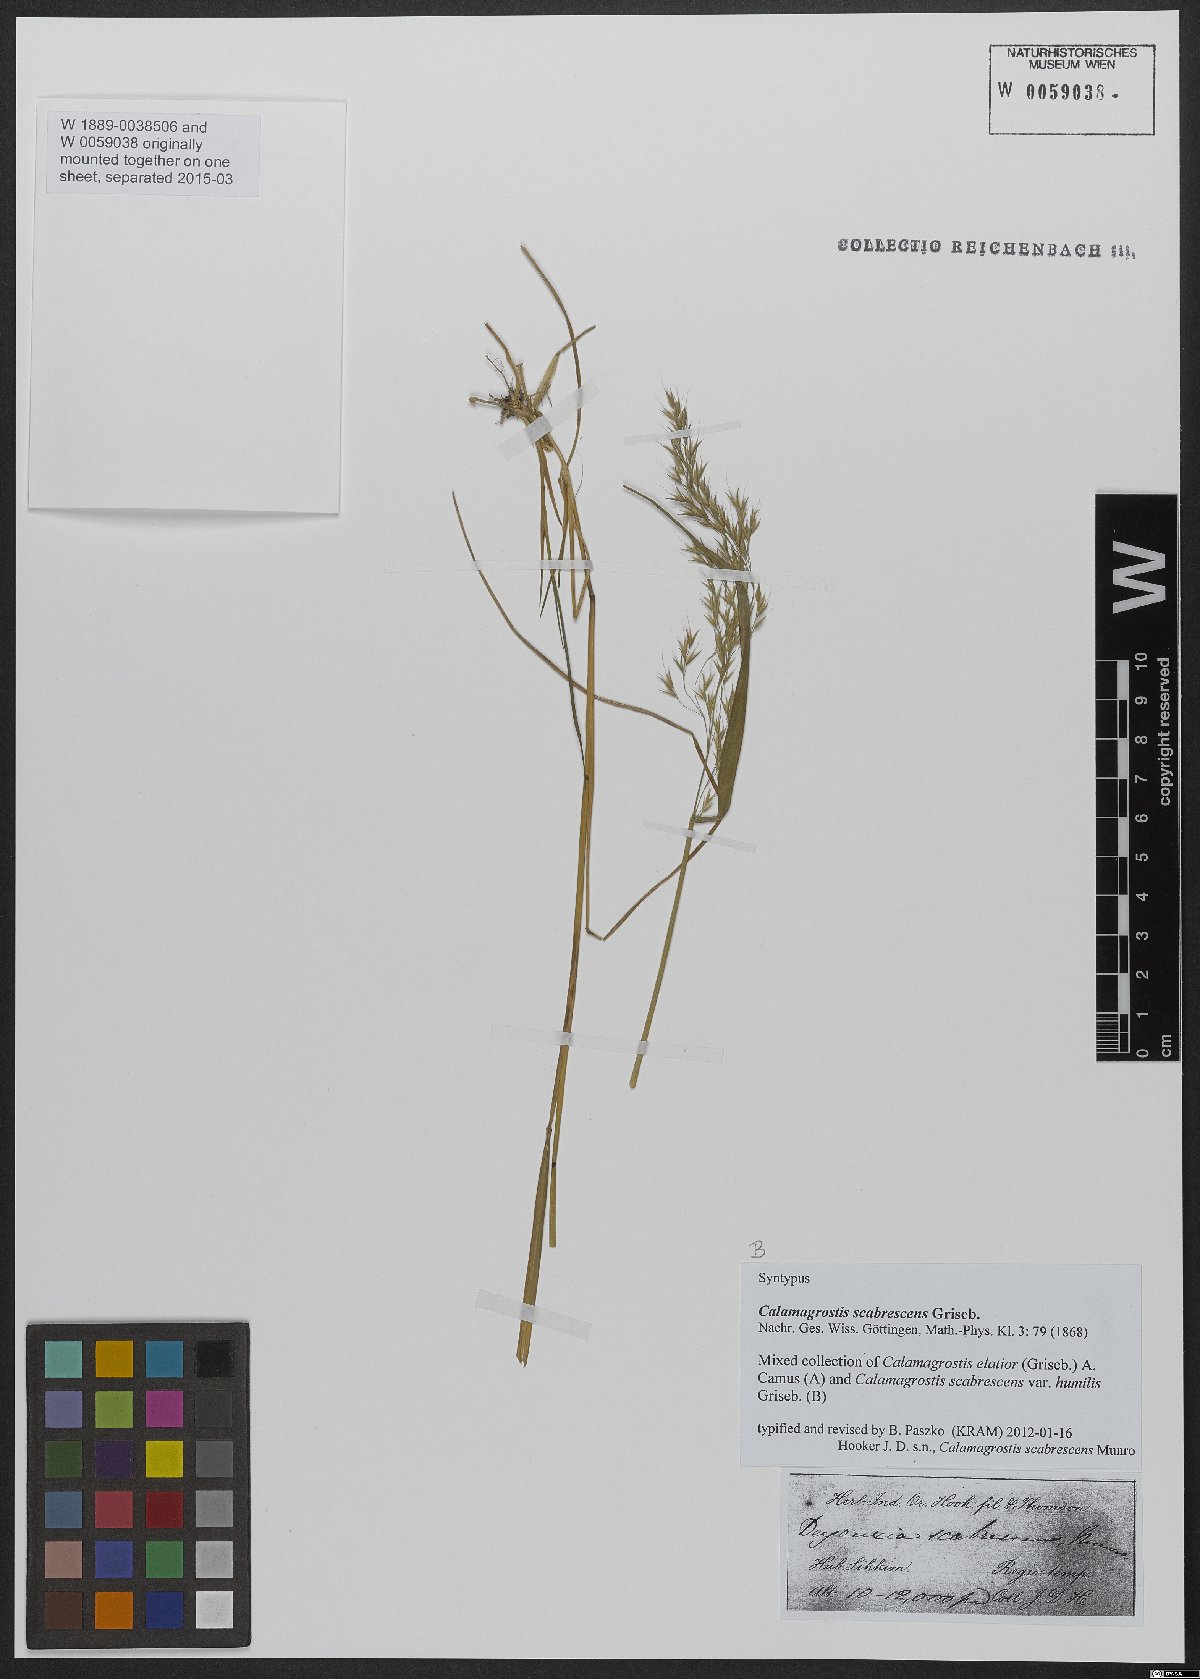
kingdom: Plantae
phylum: Tracheophyta
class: Liliopsida
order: Poales
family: Poaceae
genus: Calamagrostis
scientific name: Calamagrostis scabrescens
